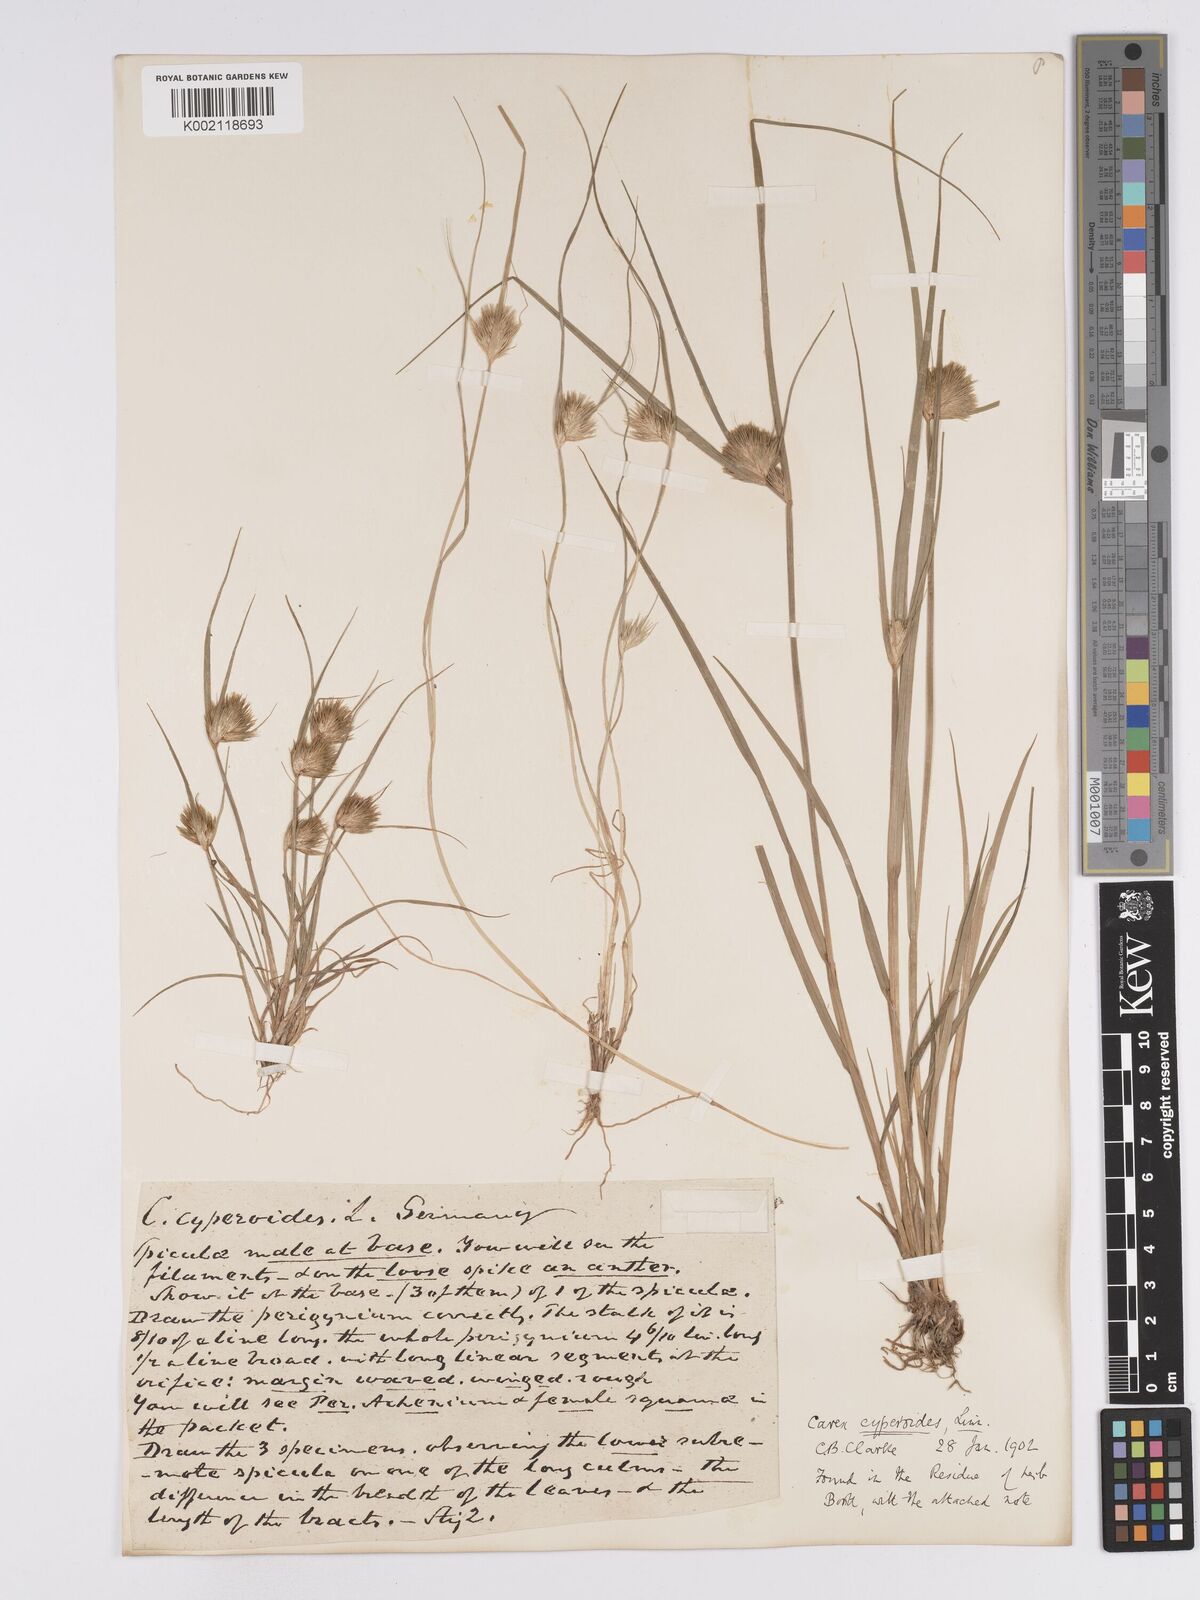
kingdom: Plantae
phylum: Tracheophyta
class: Liliopsida
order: Poales
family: Cyperaceae
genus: Carex
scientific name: Carex bohemica
